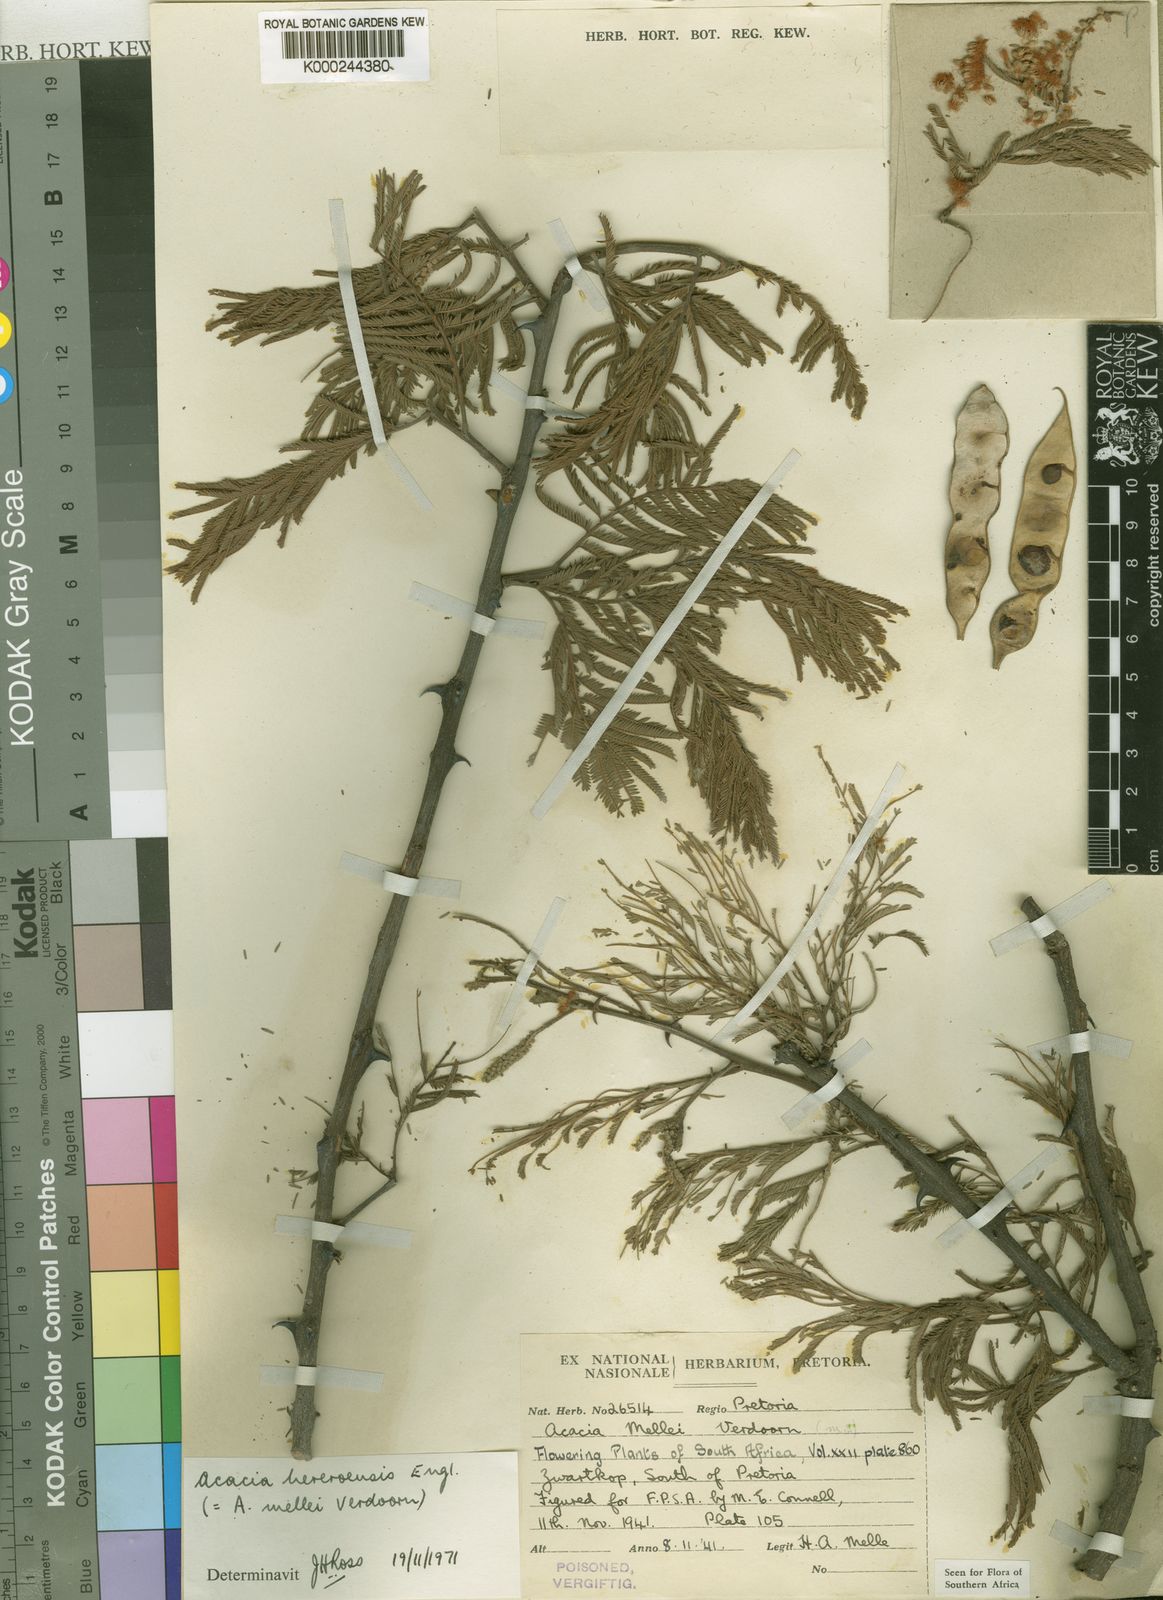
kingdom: Plantae
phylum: Tracheophyta
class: Magnoliopsida
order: Fabales
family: Fabaceae
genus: Senegalia
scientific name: Senegalia hereroensis
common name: Arid hook-thorn
